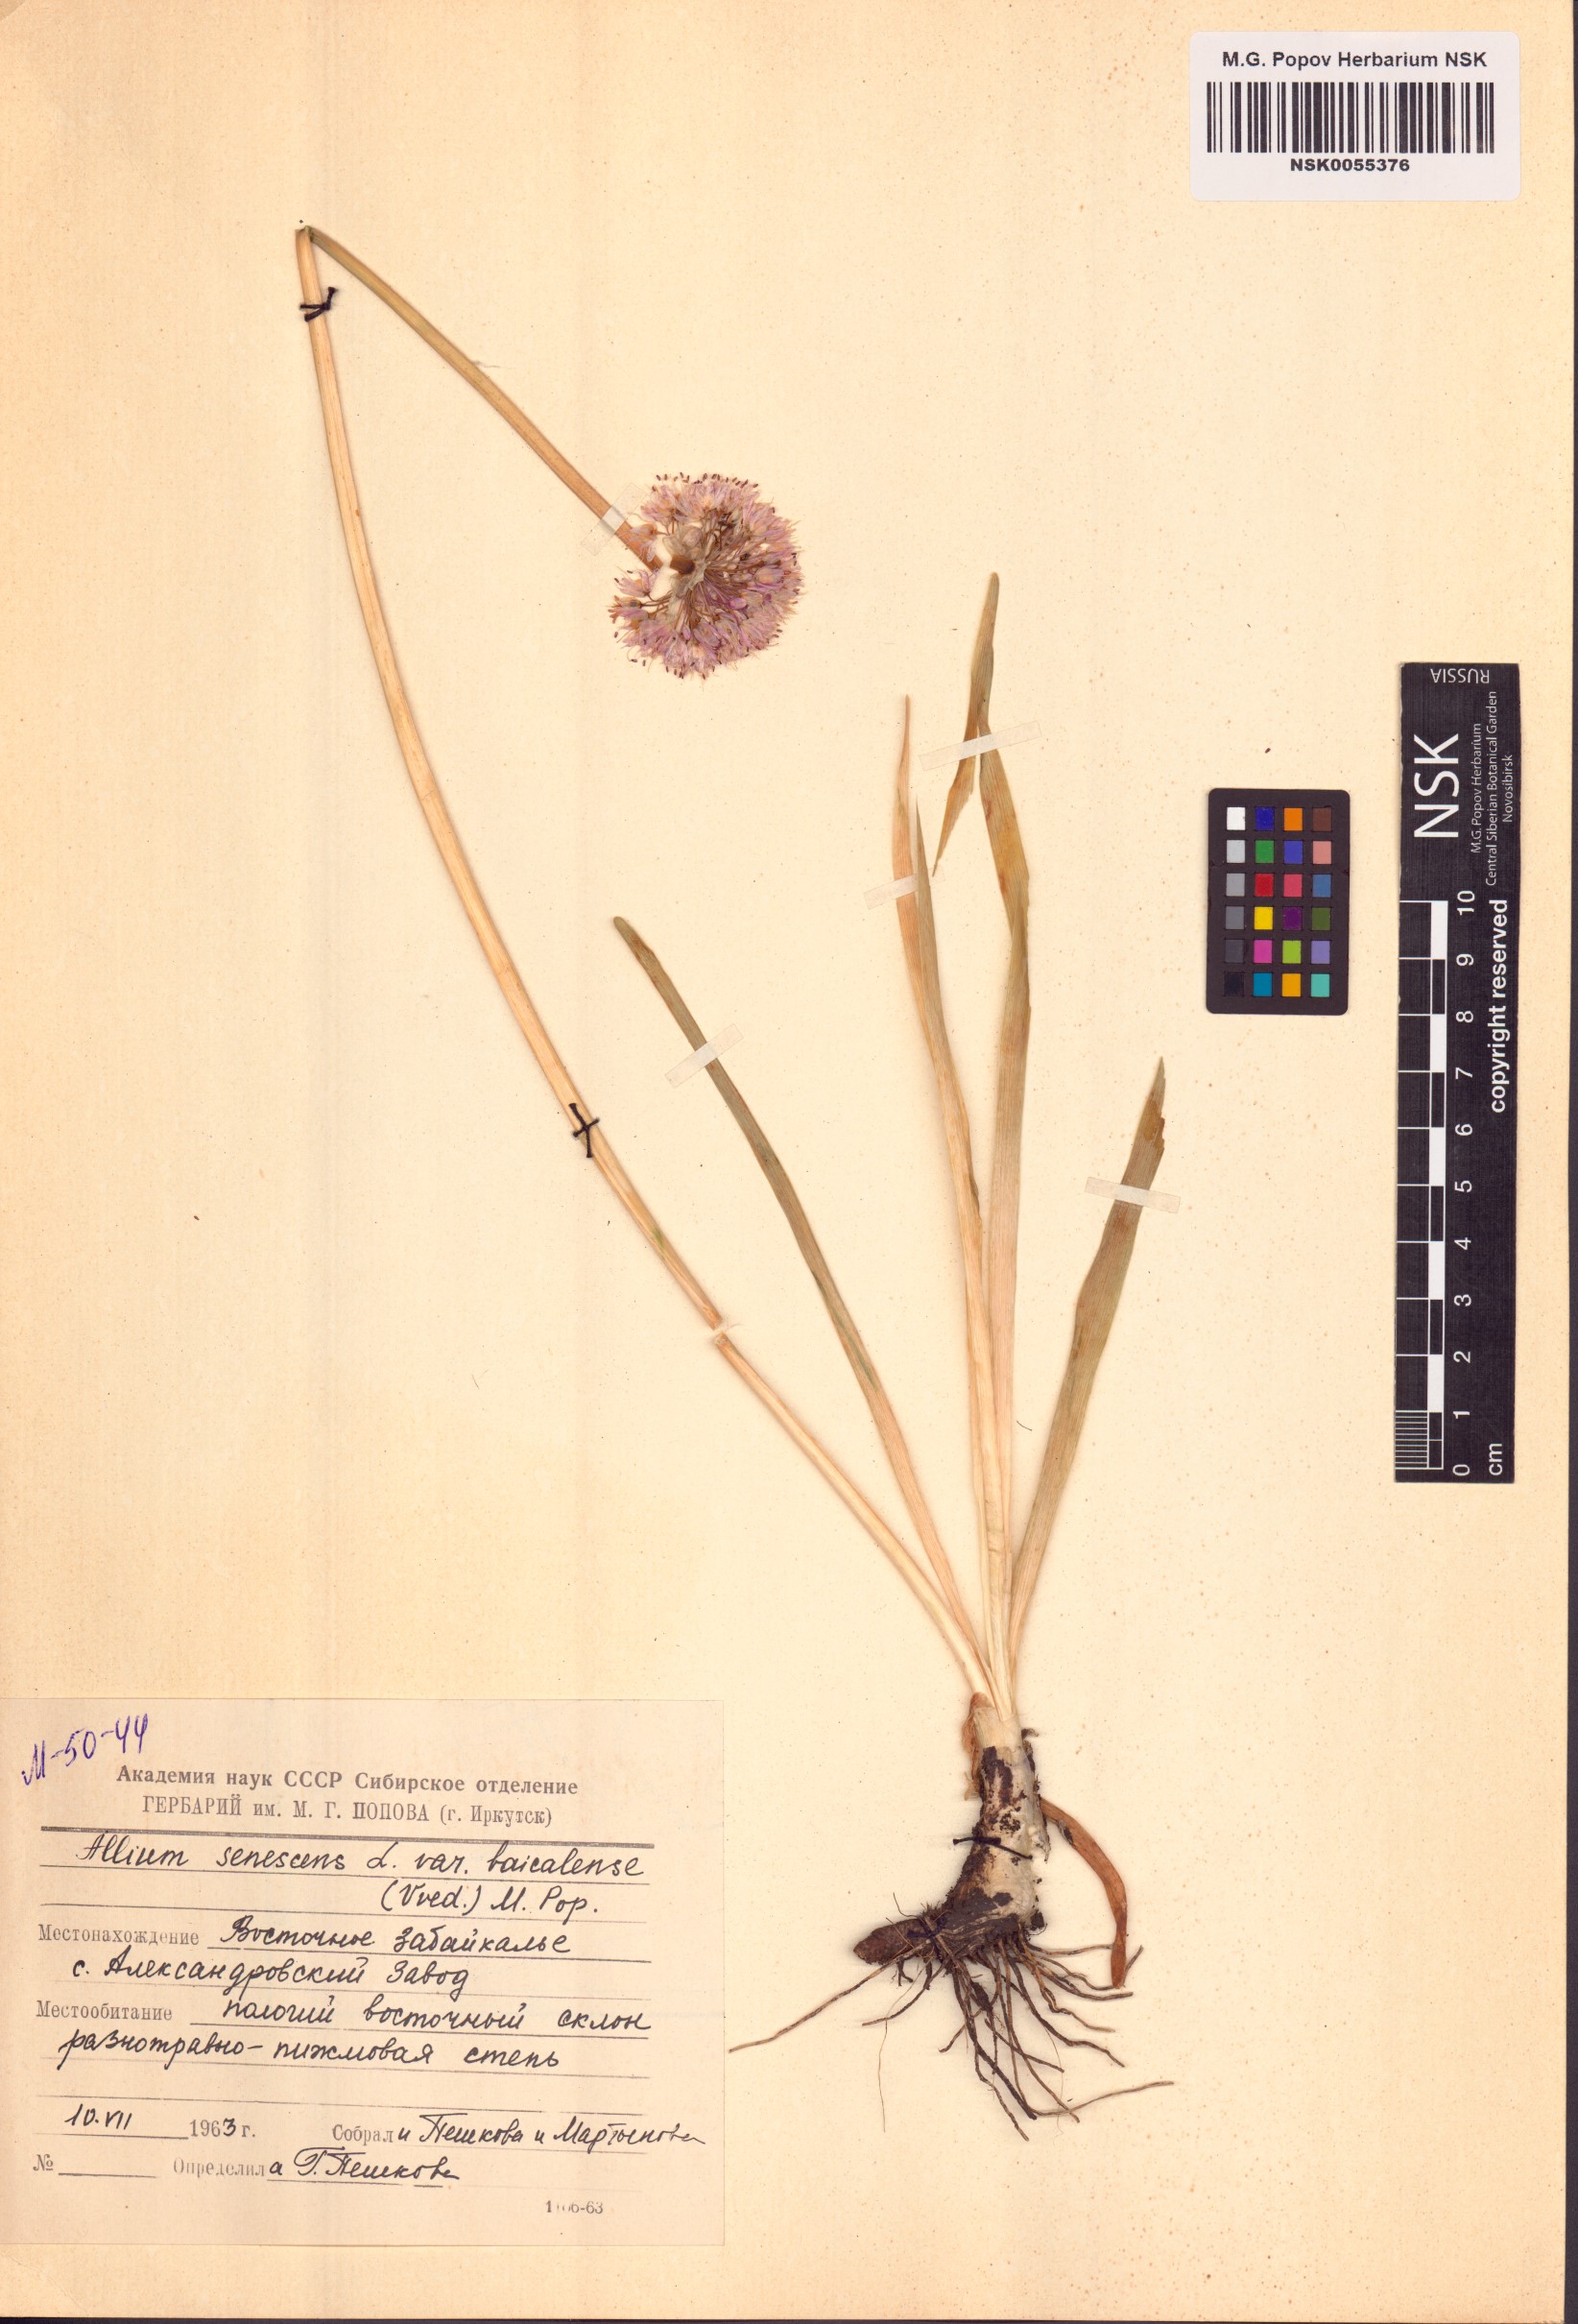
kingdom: Plantae
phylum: Tracheophyta
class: Liliopsida
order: Asparagales
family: Amaryllidaceae
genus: Allium
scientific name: Allium senescens
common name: German garlic
